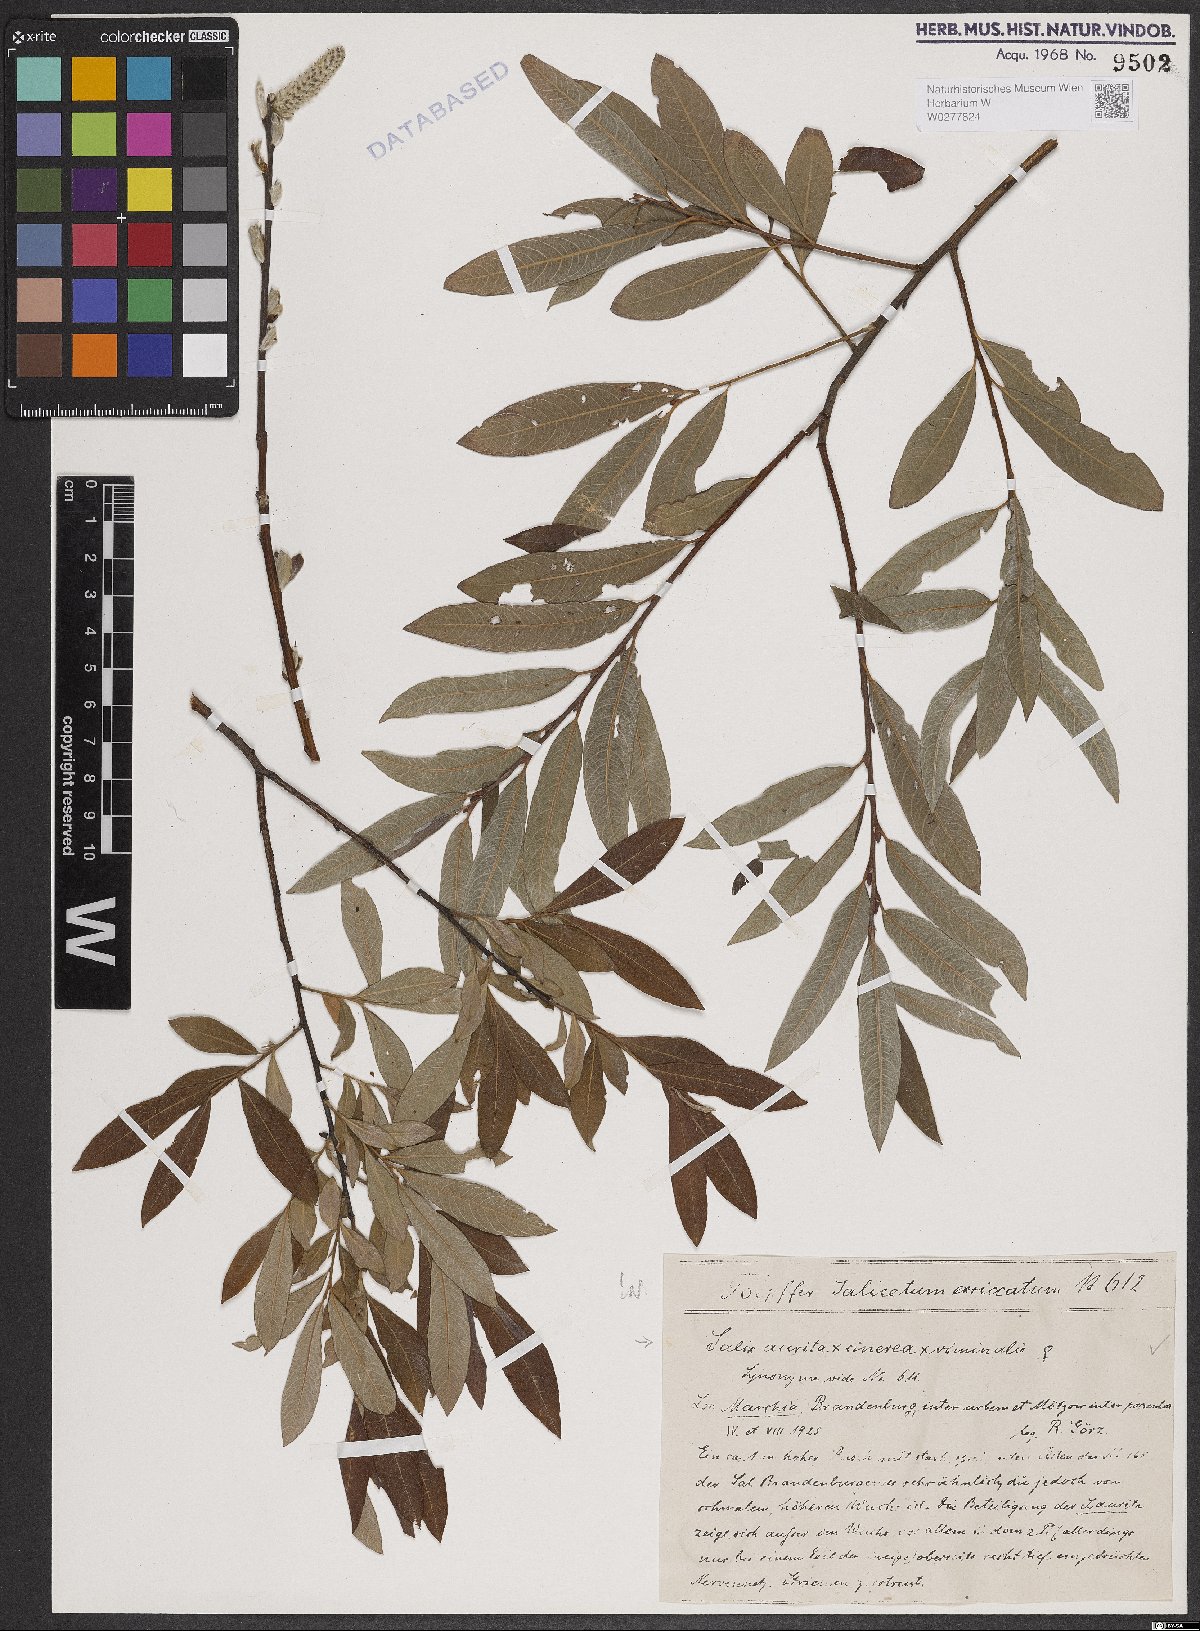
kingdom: Plantae
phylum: Tracheophyta
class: Magnoliopsida
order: Malpighiales
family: Salicaceae
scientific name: Salicaceae
